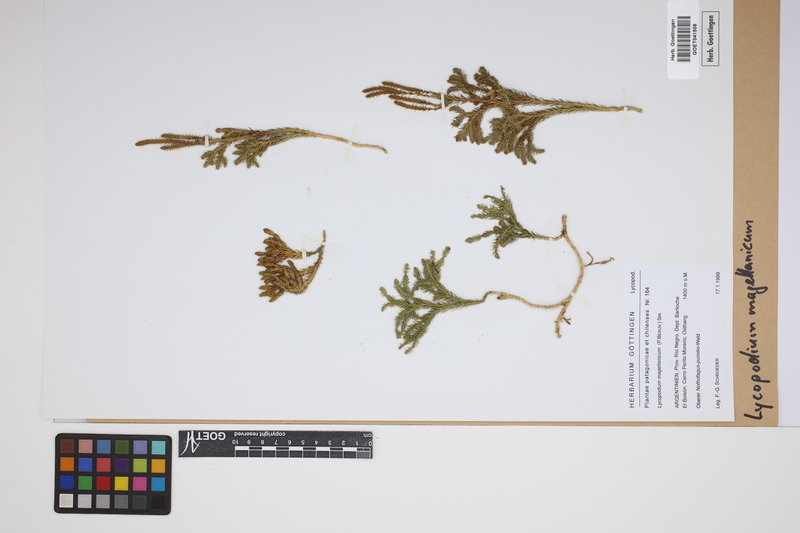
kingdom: Plantae
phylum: Tracheophyta
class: Lycopodiopsida
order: Lycopodiales
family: Lycopodiaceae
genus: Austrolycopodium
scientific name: Austrolycopodium magellanicum
